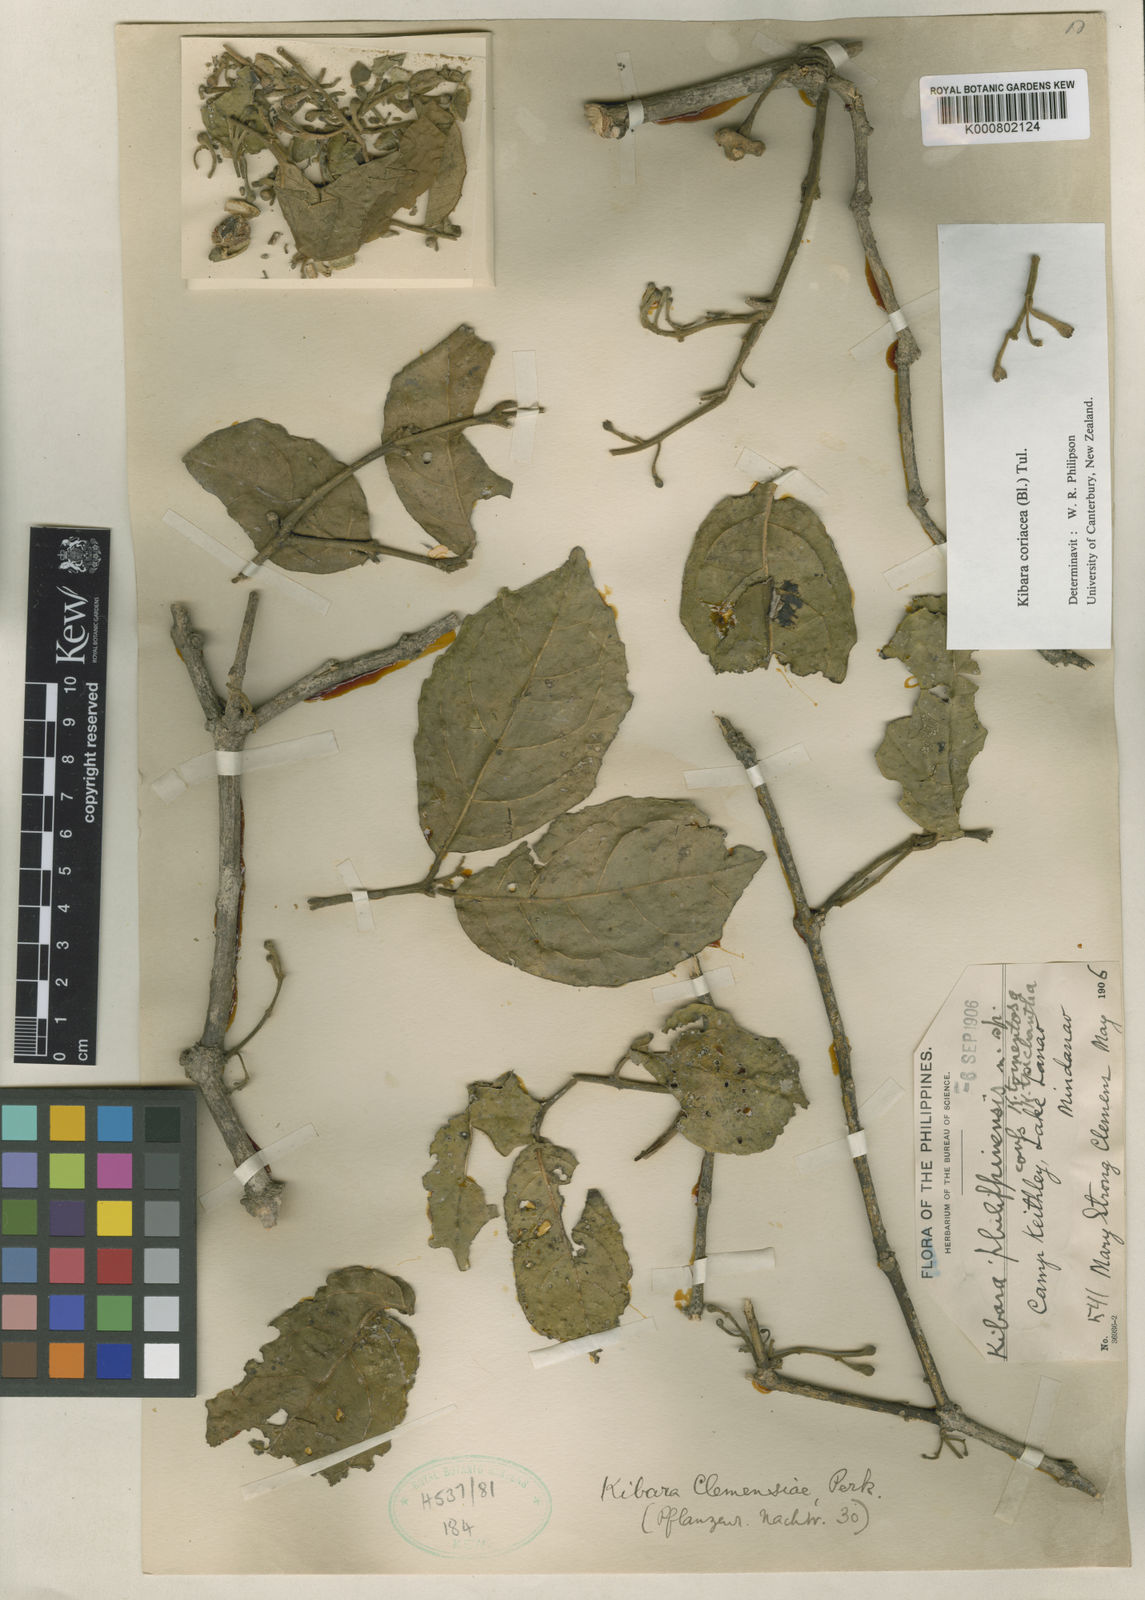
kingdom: Plantae
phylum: Tracheophyta
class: Magnoliopsida
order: Laurales
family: Monimiaceae
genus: Kibara
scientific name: Kibara coriacea
